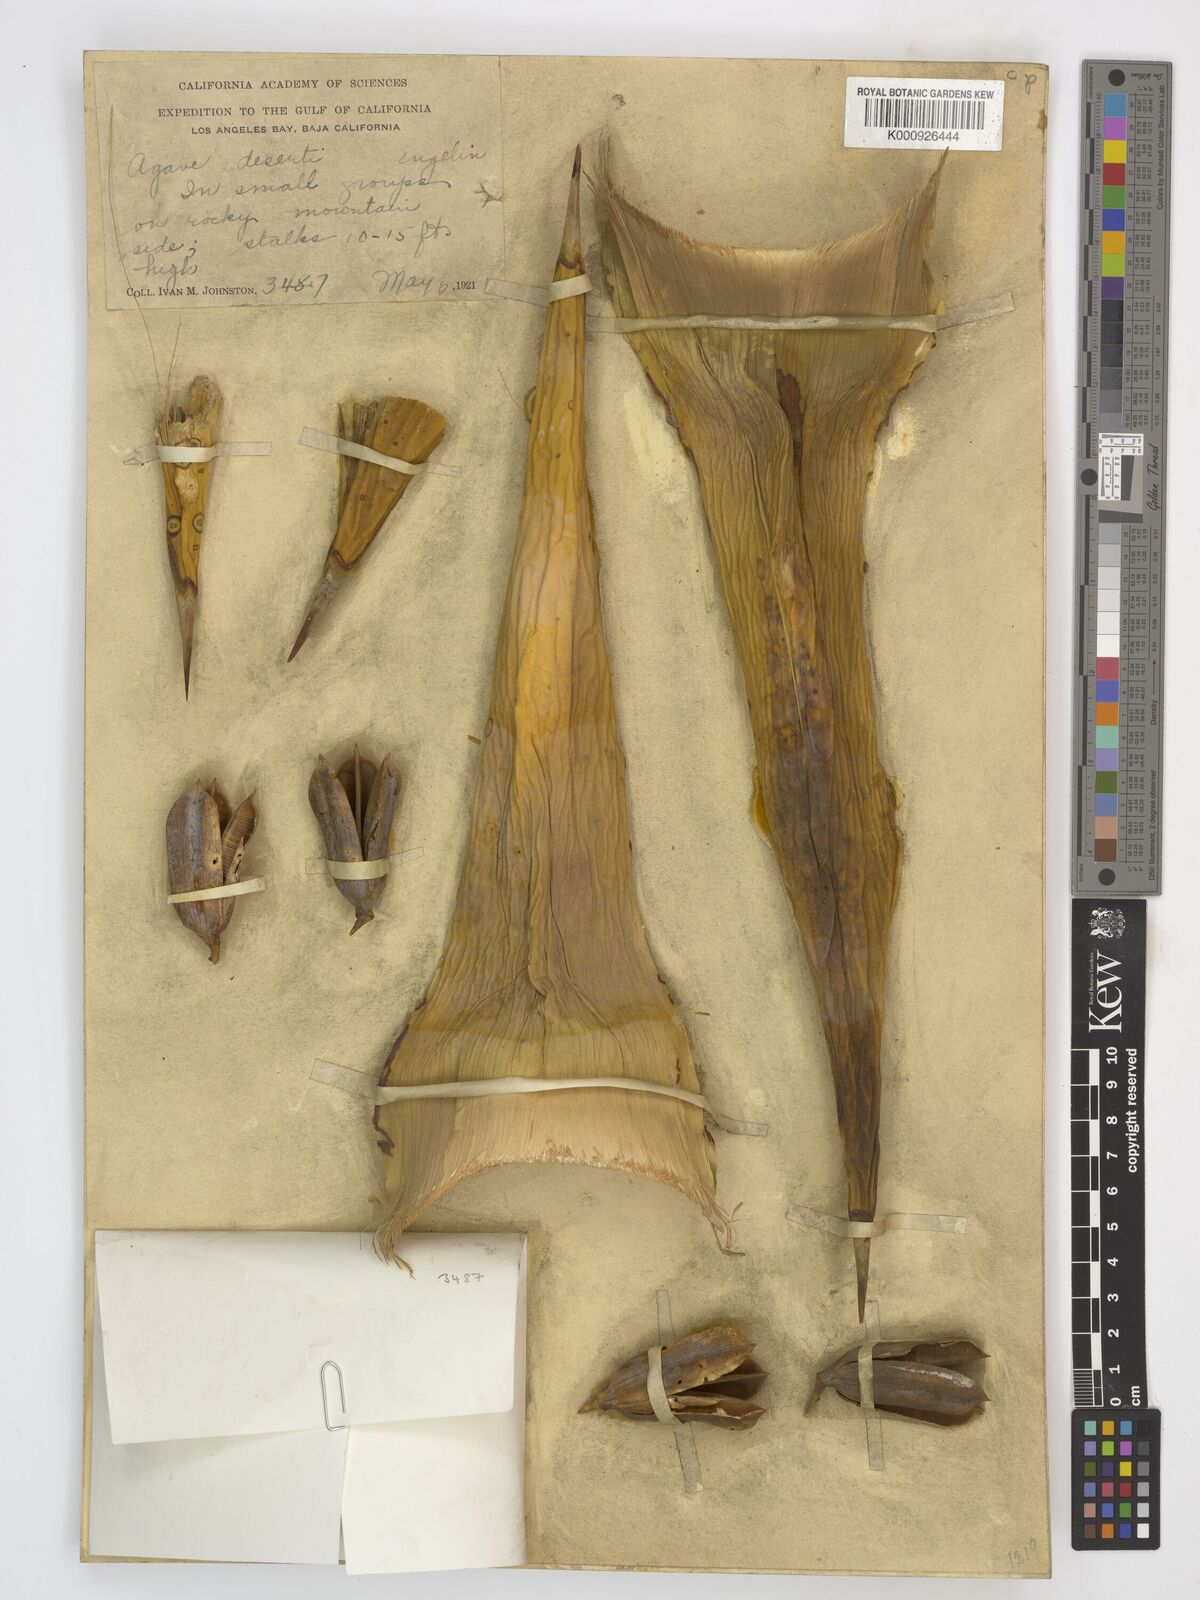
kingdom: Plantae
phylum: Tracheophyta
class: Liliopsida
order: Asparagales
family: Asparagaceae
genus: Agave
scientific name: Agave deserti
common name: Desert agave
